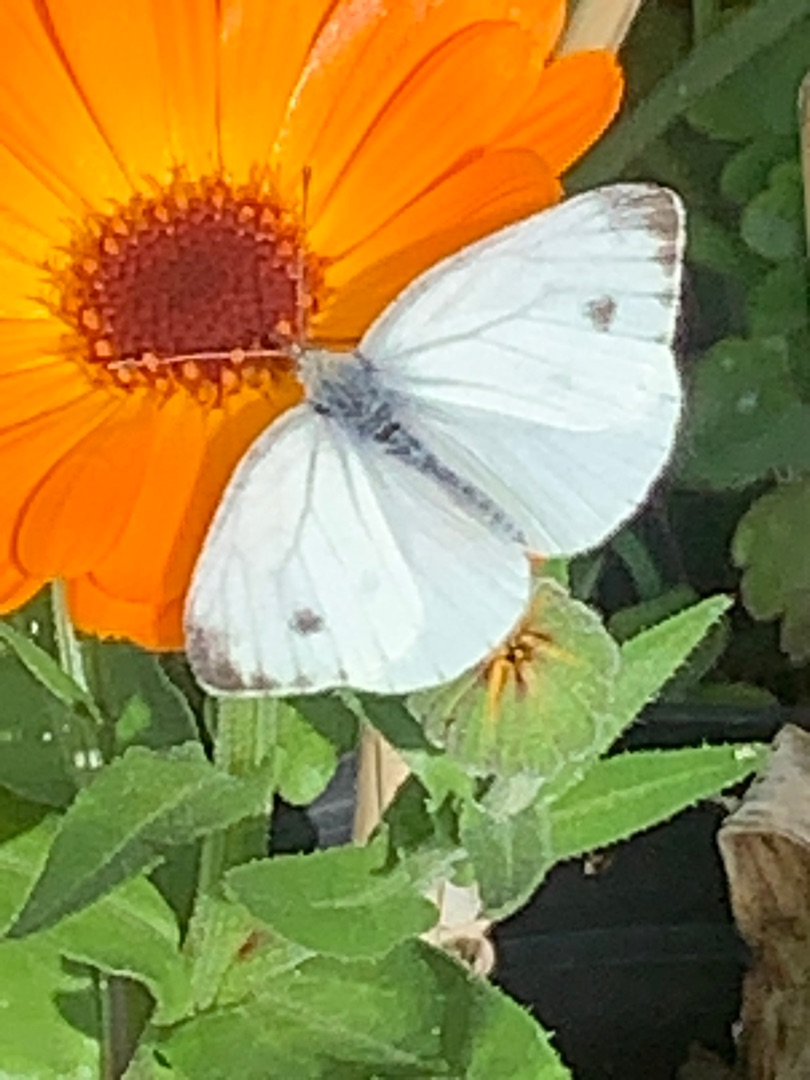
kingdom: Animalia
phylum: Arthropoda
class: Insecta
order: Lepidoptera
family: Pieridae
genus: Pieris
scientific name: Pieris napi
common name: Grønåret kålsommerfugl
